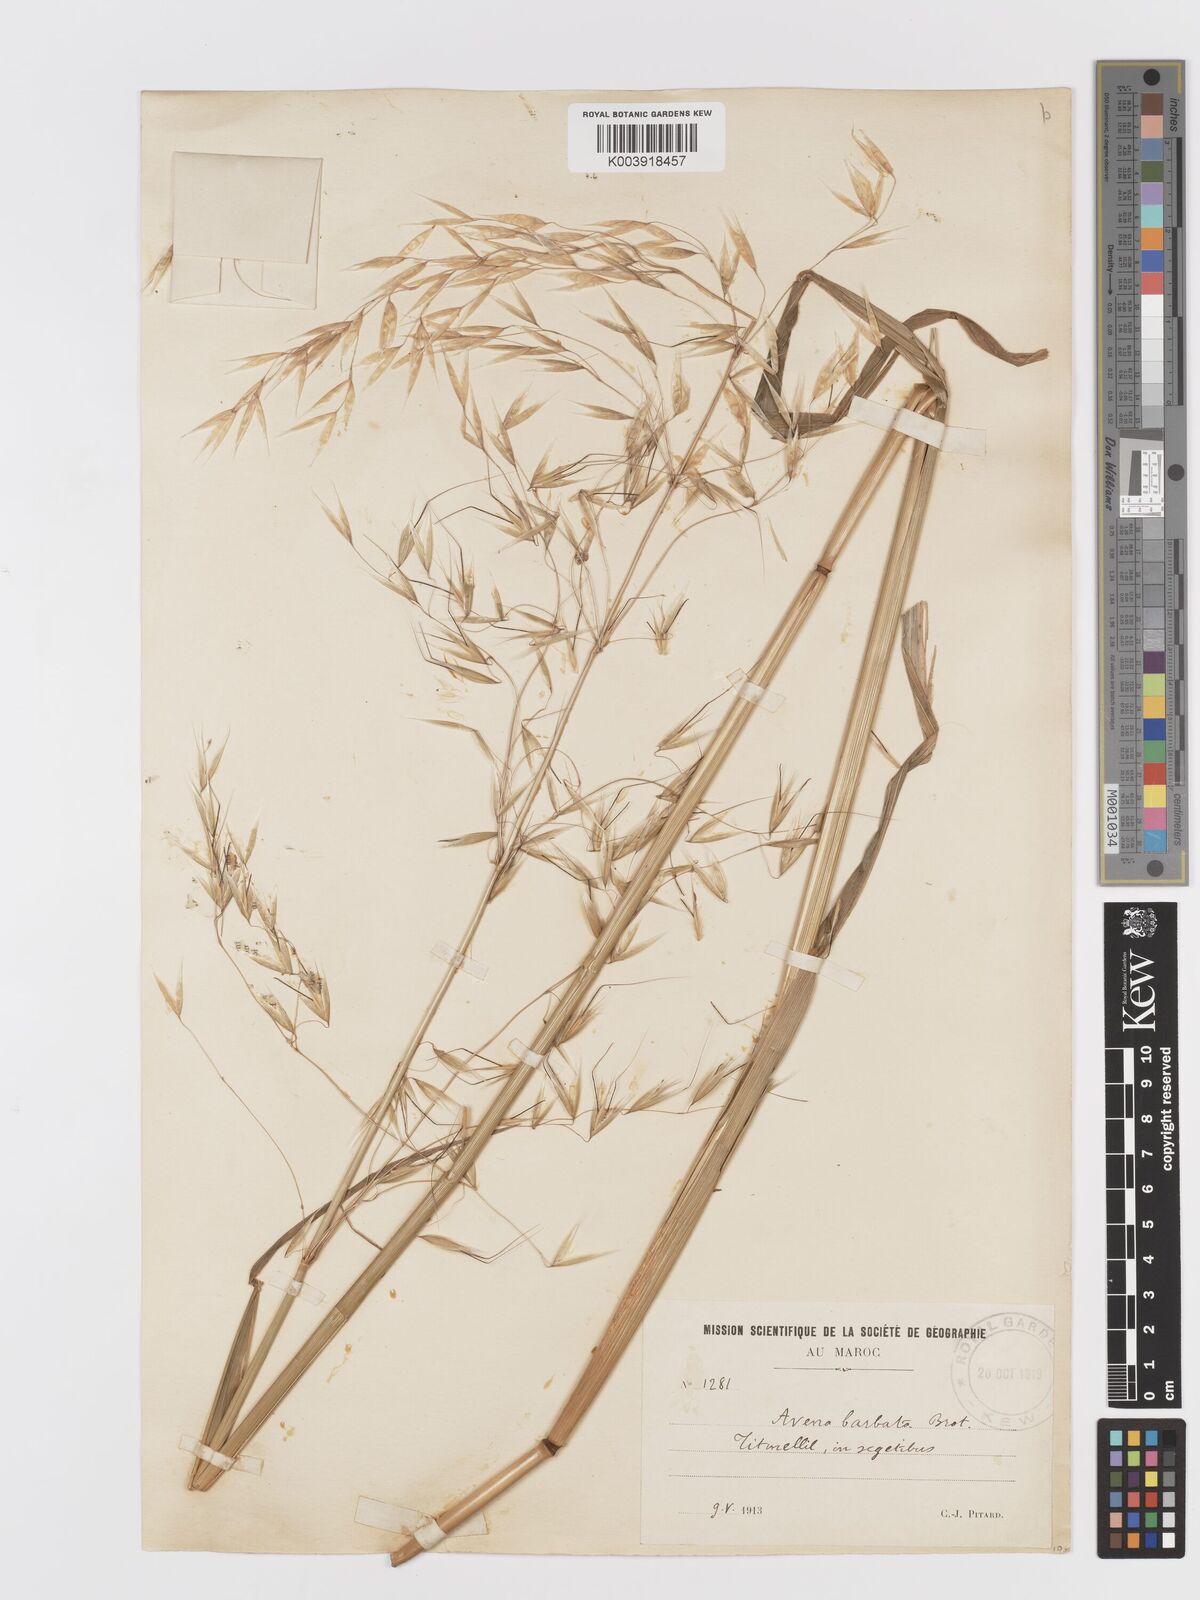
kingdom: Plantae
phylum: Tracheophyta
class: Liliopsida
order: Poales
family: Poaceae
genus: Avena
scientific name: Avena
